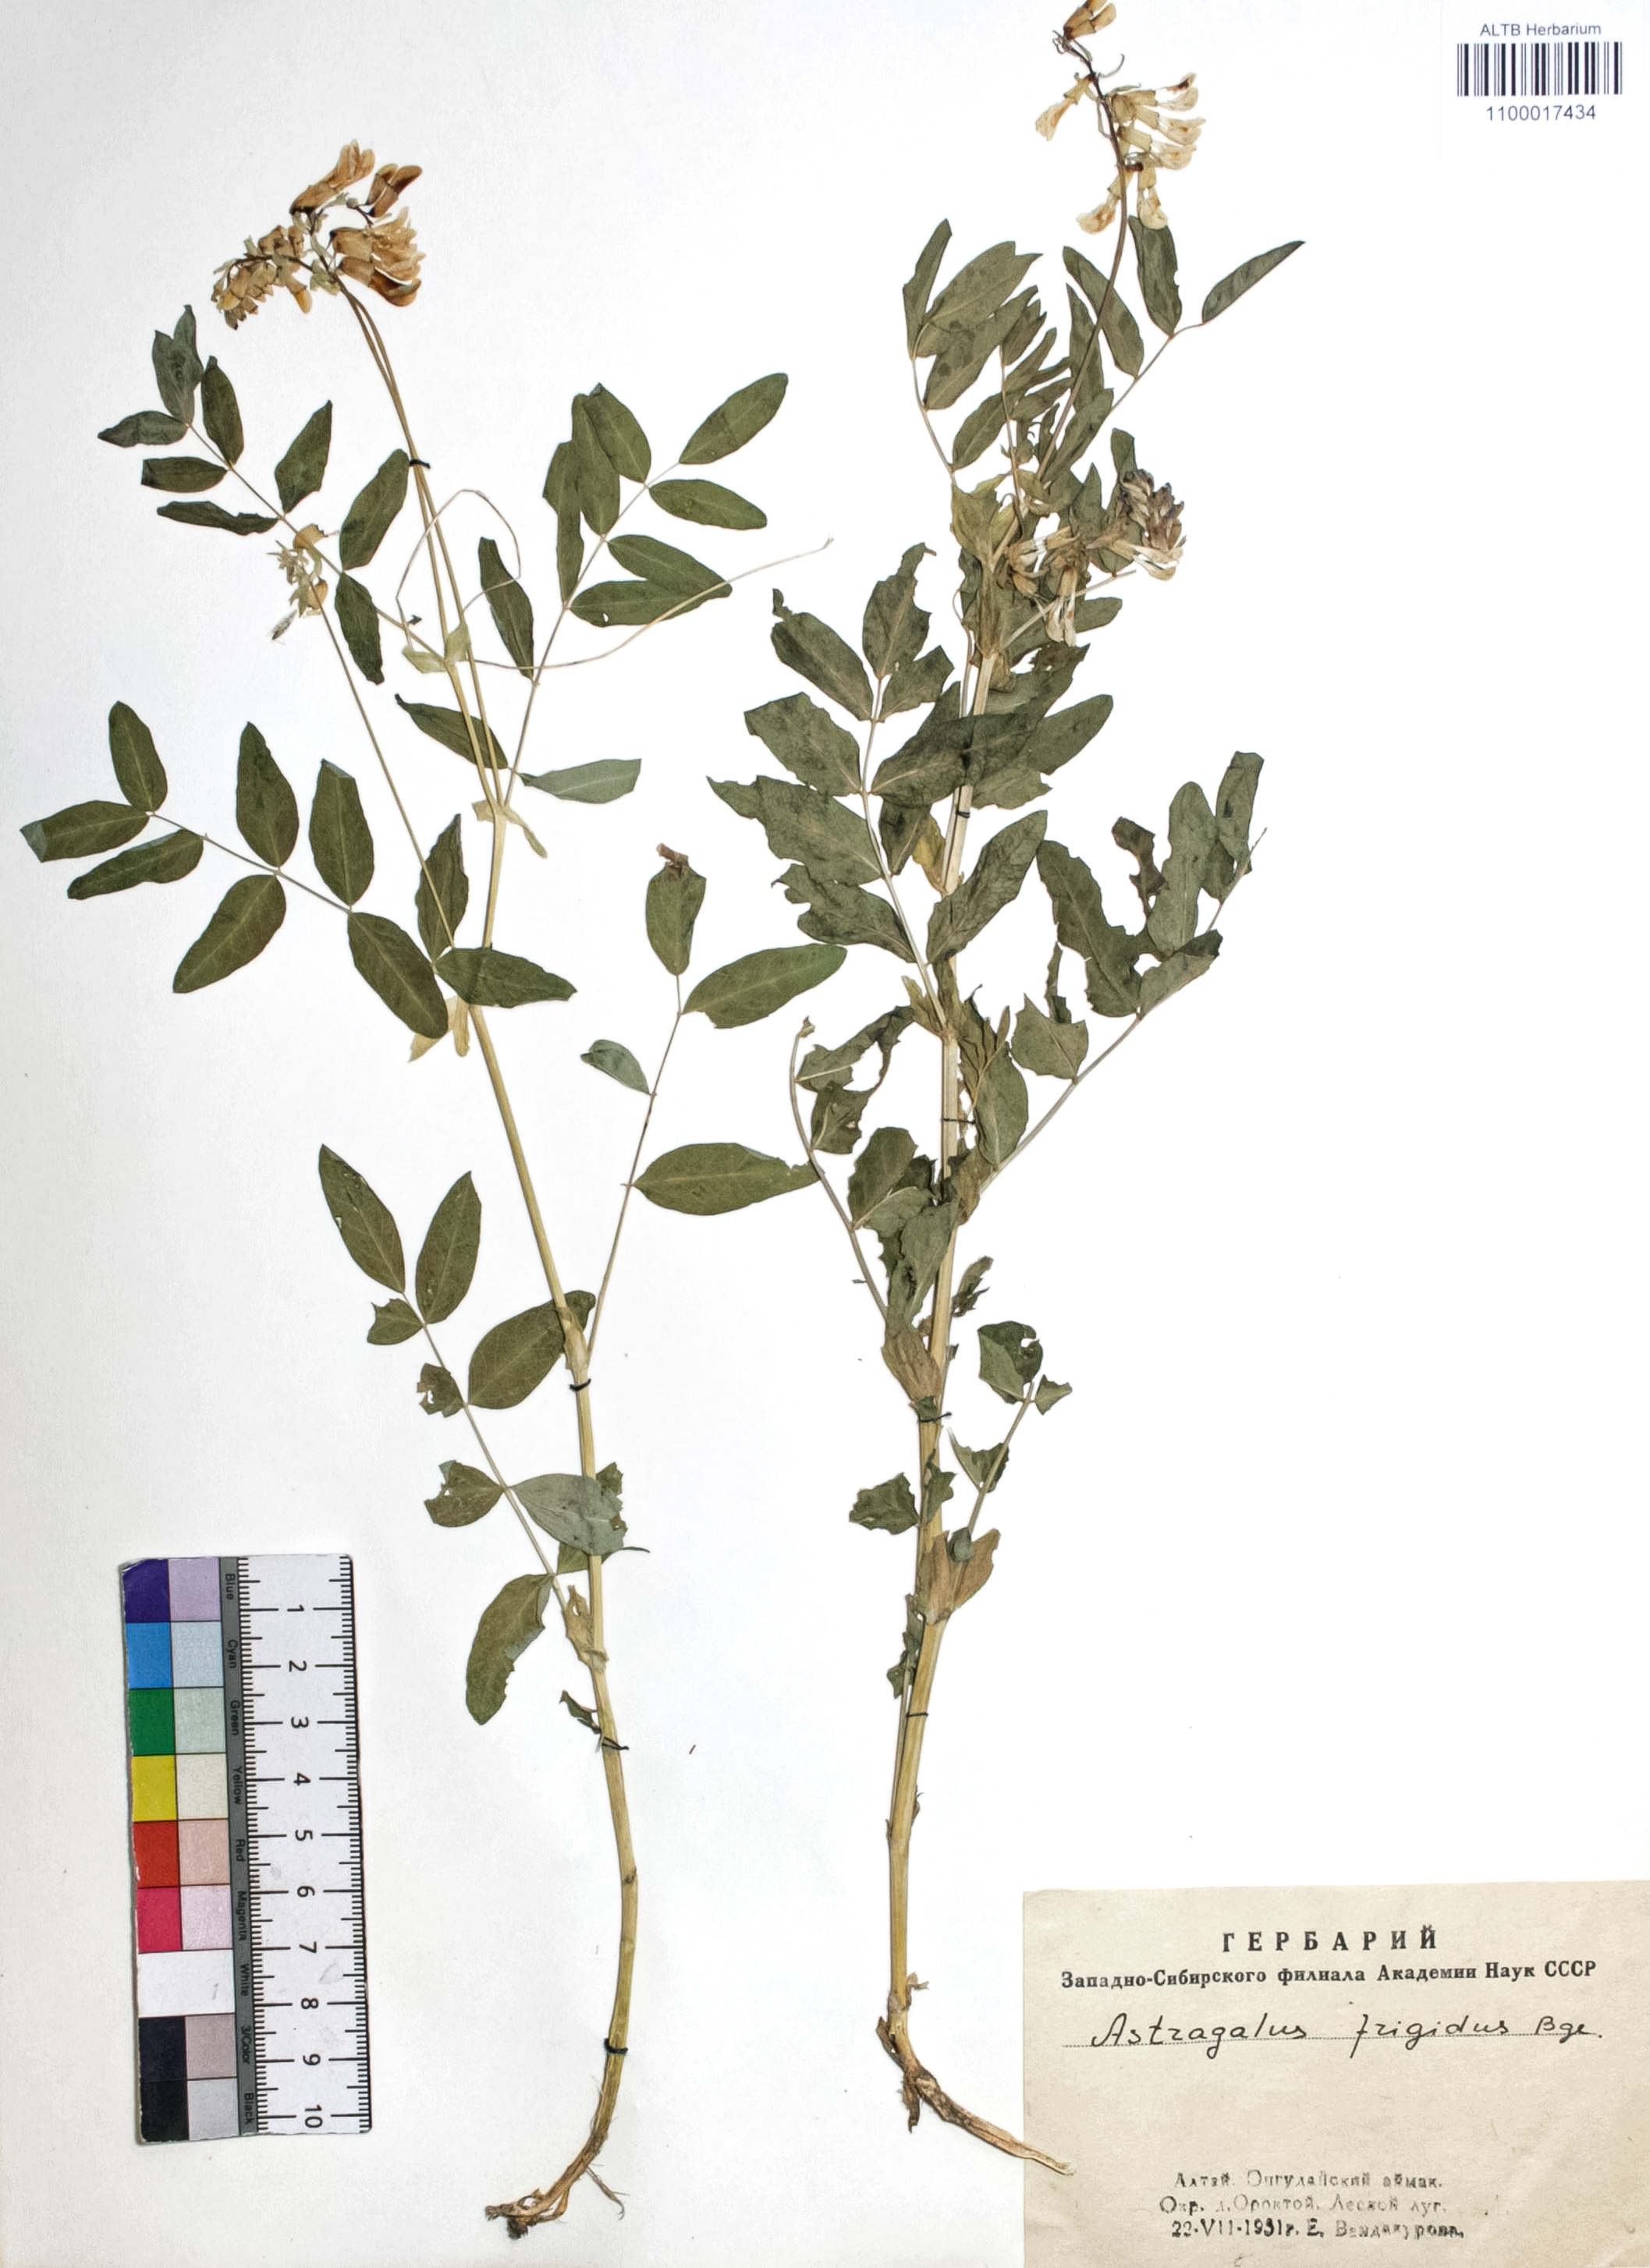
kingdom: Plantae
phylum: Tracheophyta
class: Magnoliopsida
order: Fabales
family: Fabaceae
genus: Astragalus
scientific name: Astragalus frigidus
